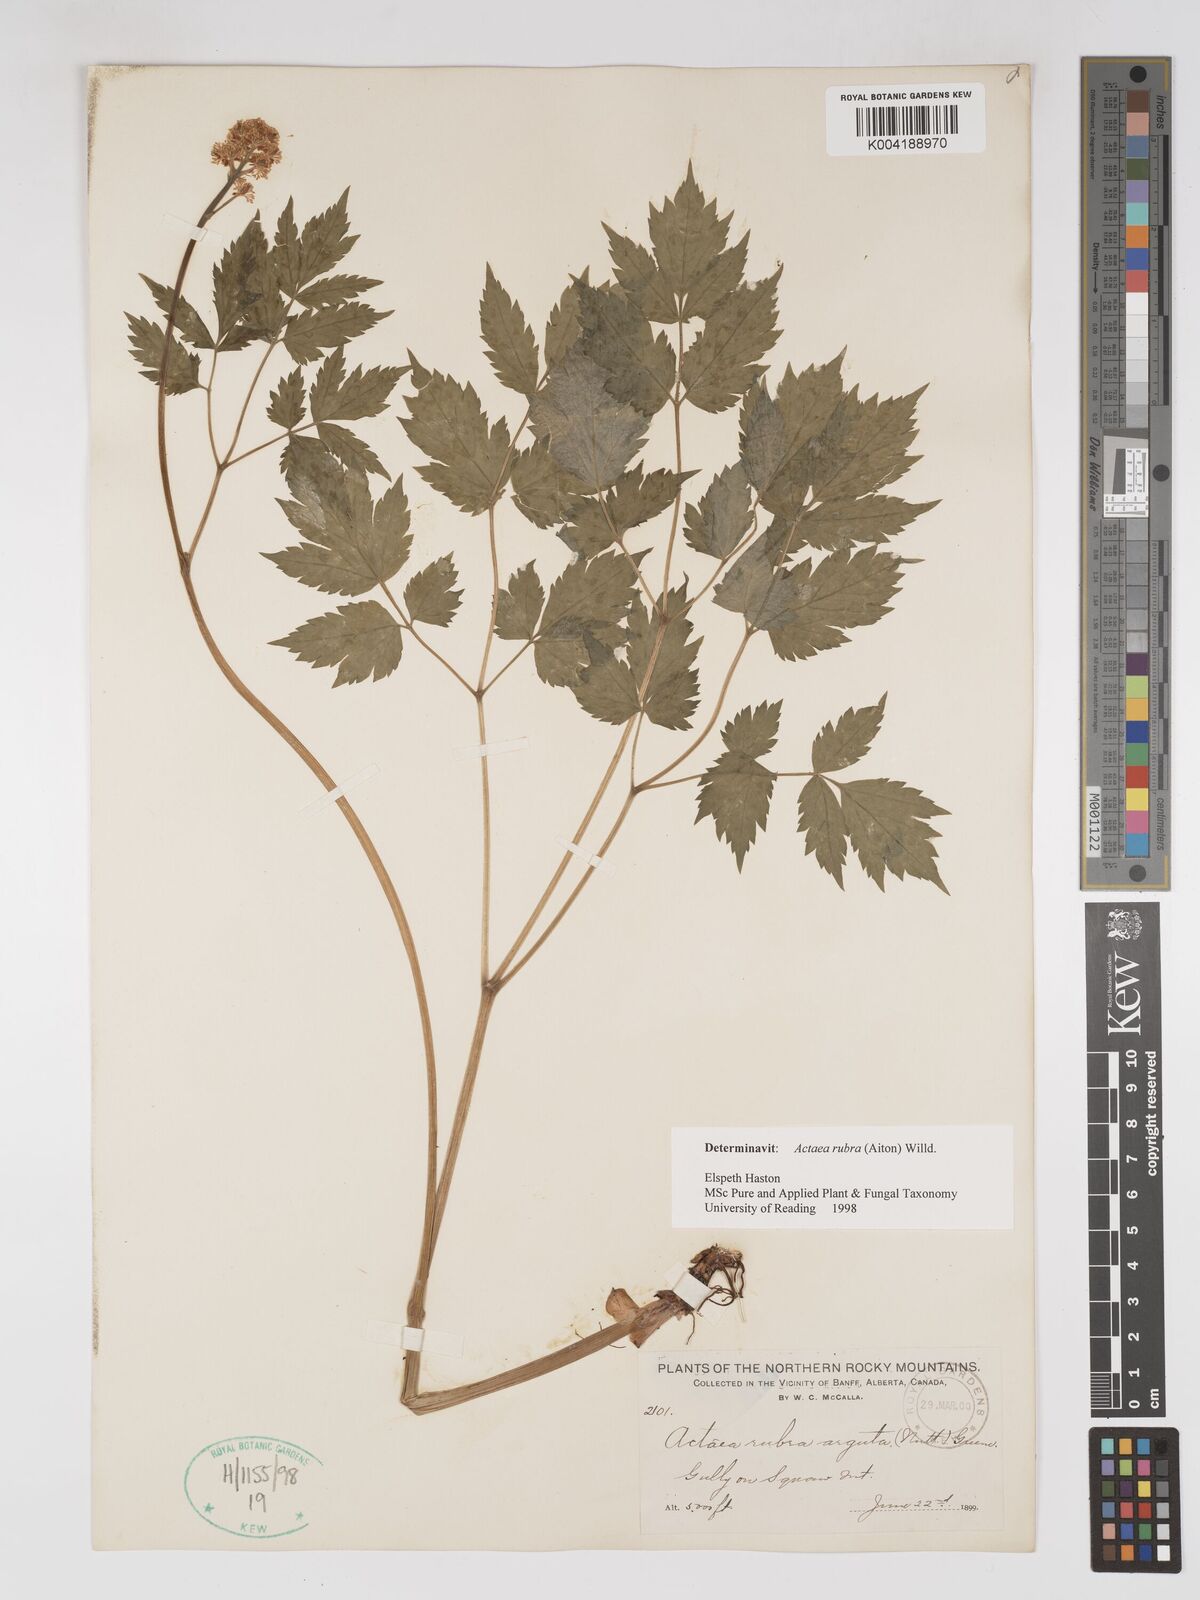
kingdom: Plantae
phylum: Tracheophyta
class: Magnoliopsida
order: Ranunculales
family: Ranunculaceae
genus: Actaea
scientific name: Actaea rubra
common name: Red baneberry
